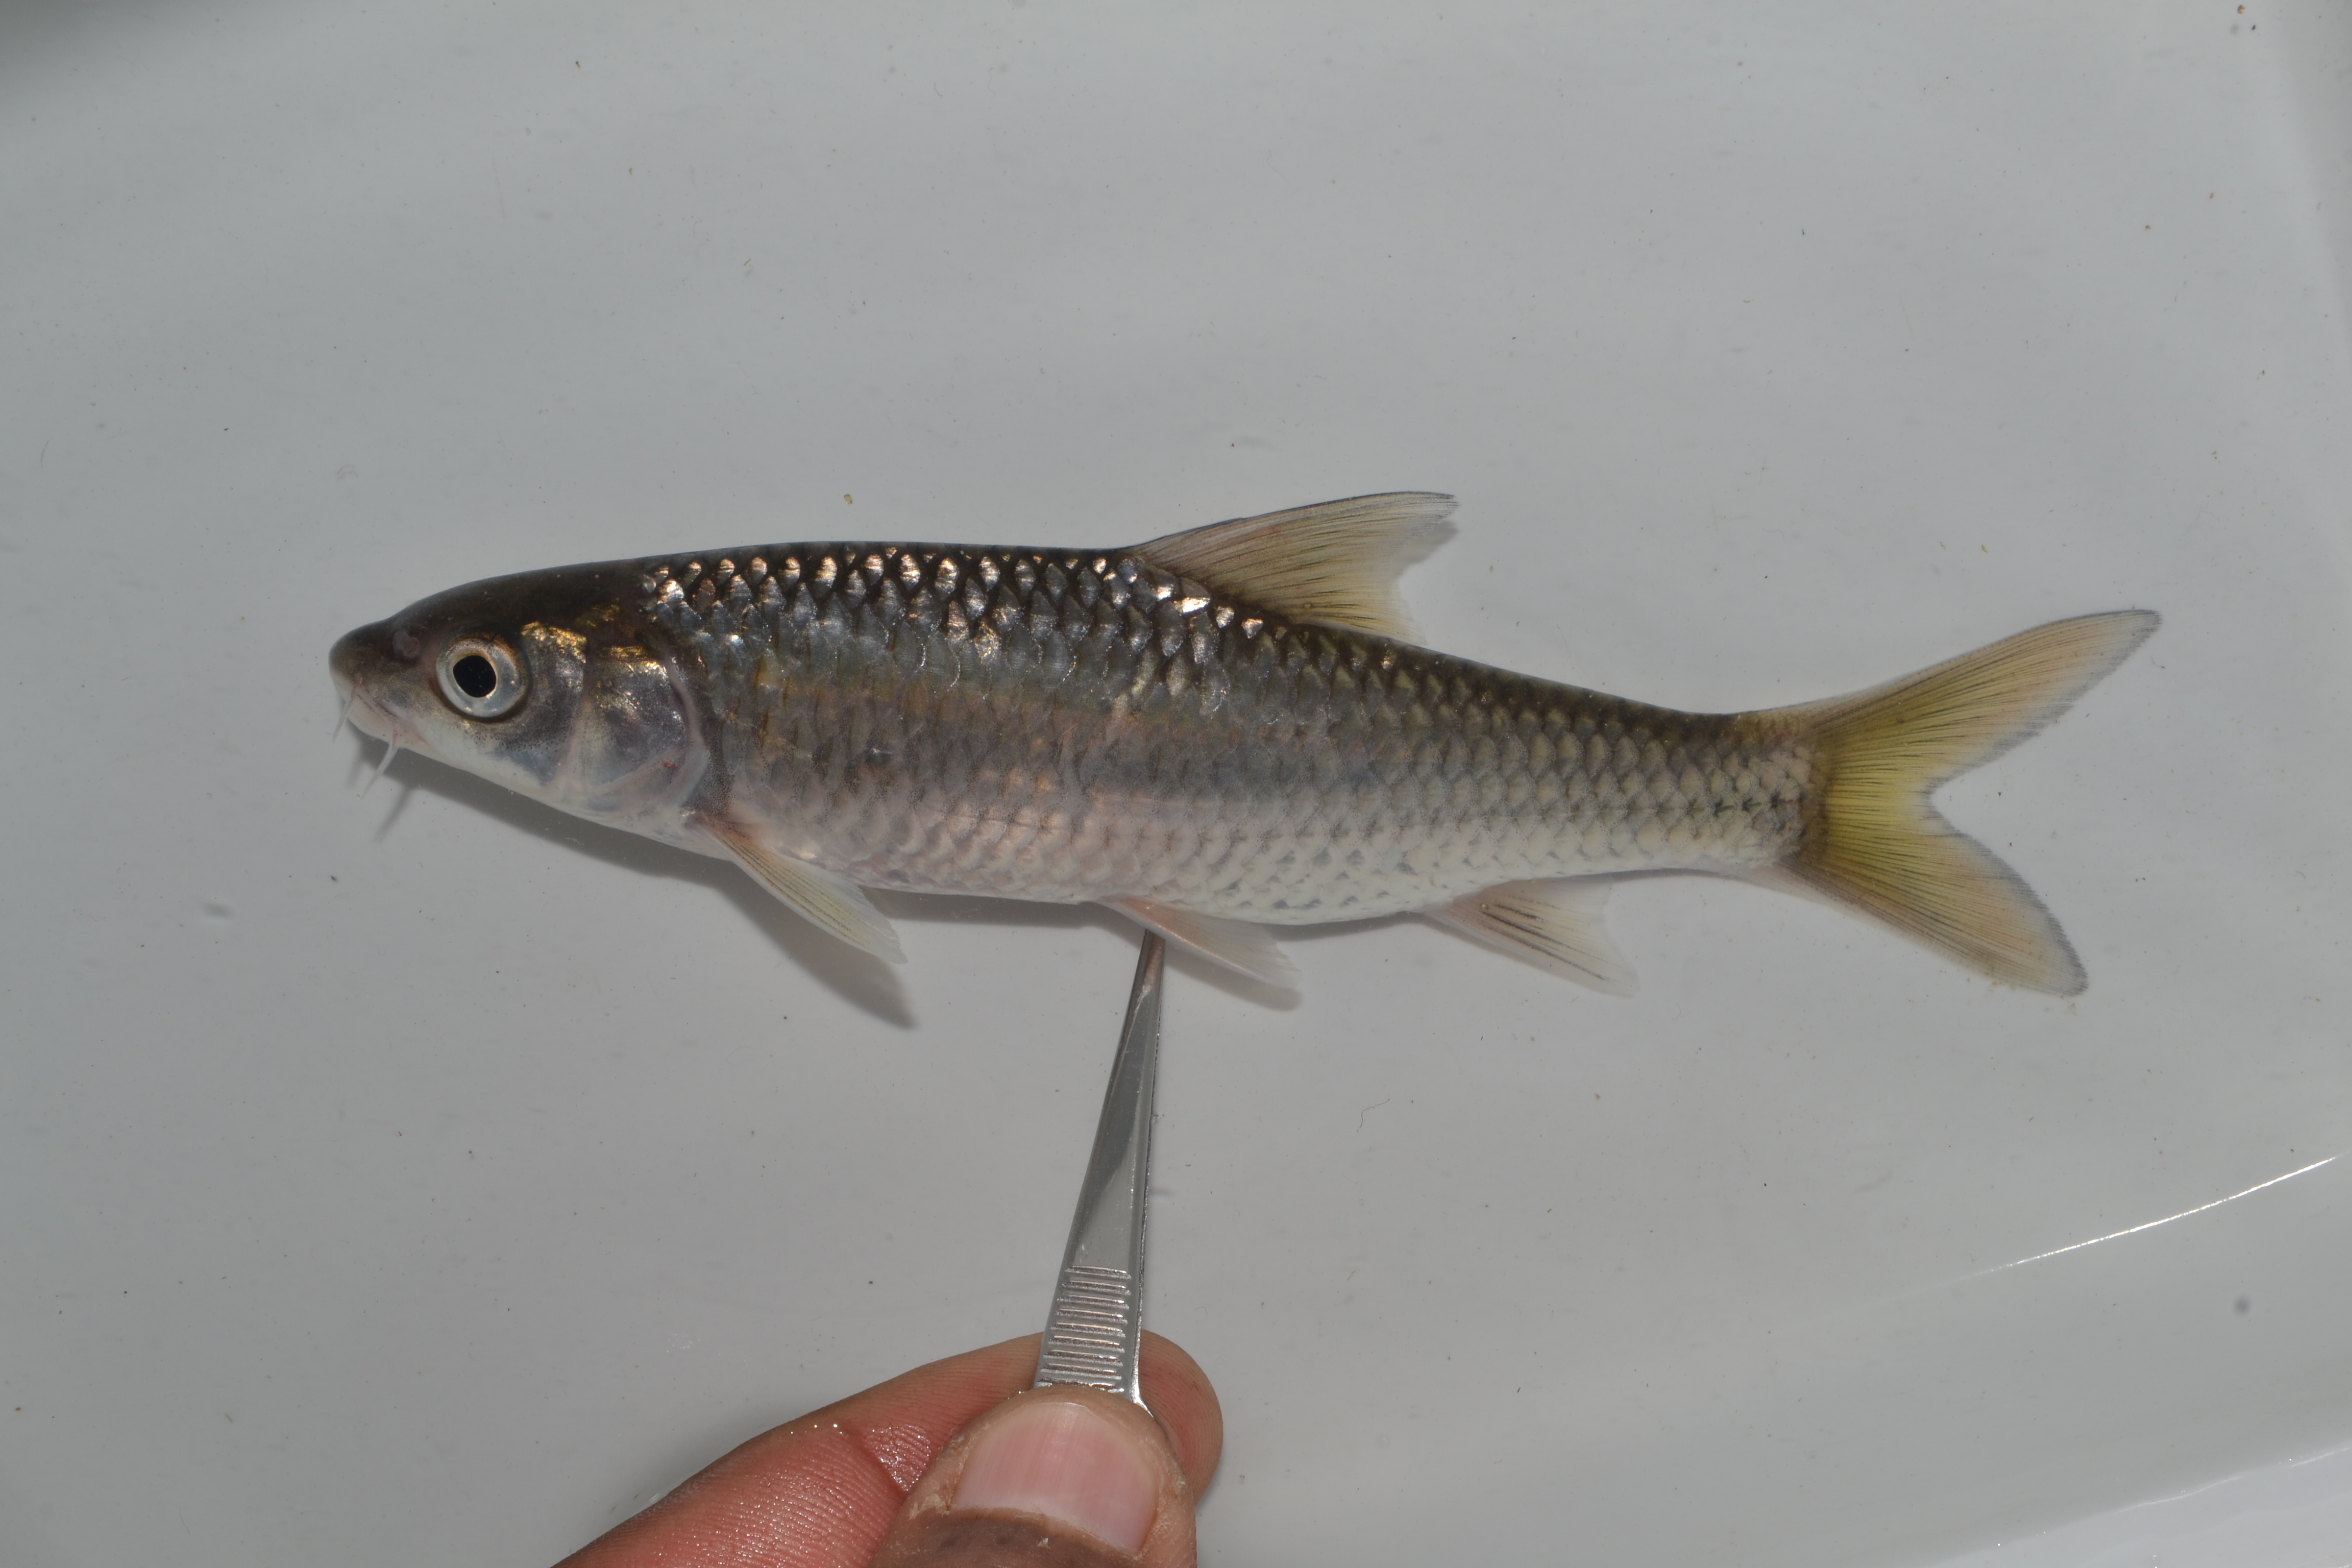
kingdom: Animalia
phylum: Chordata
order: Cypriniformes
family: Cyprinidae
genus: Labeobarbus
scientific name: Labeobarbus natalensis
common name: Scaly
